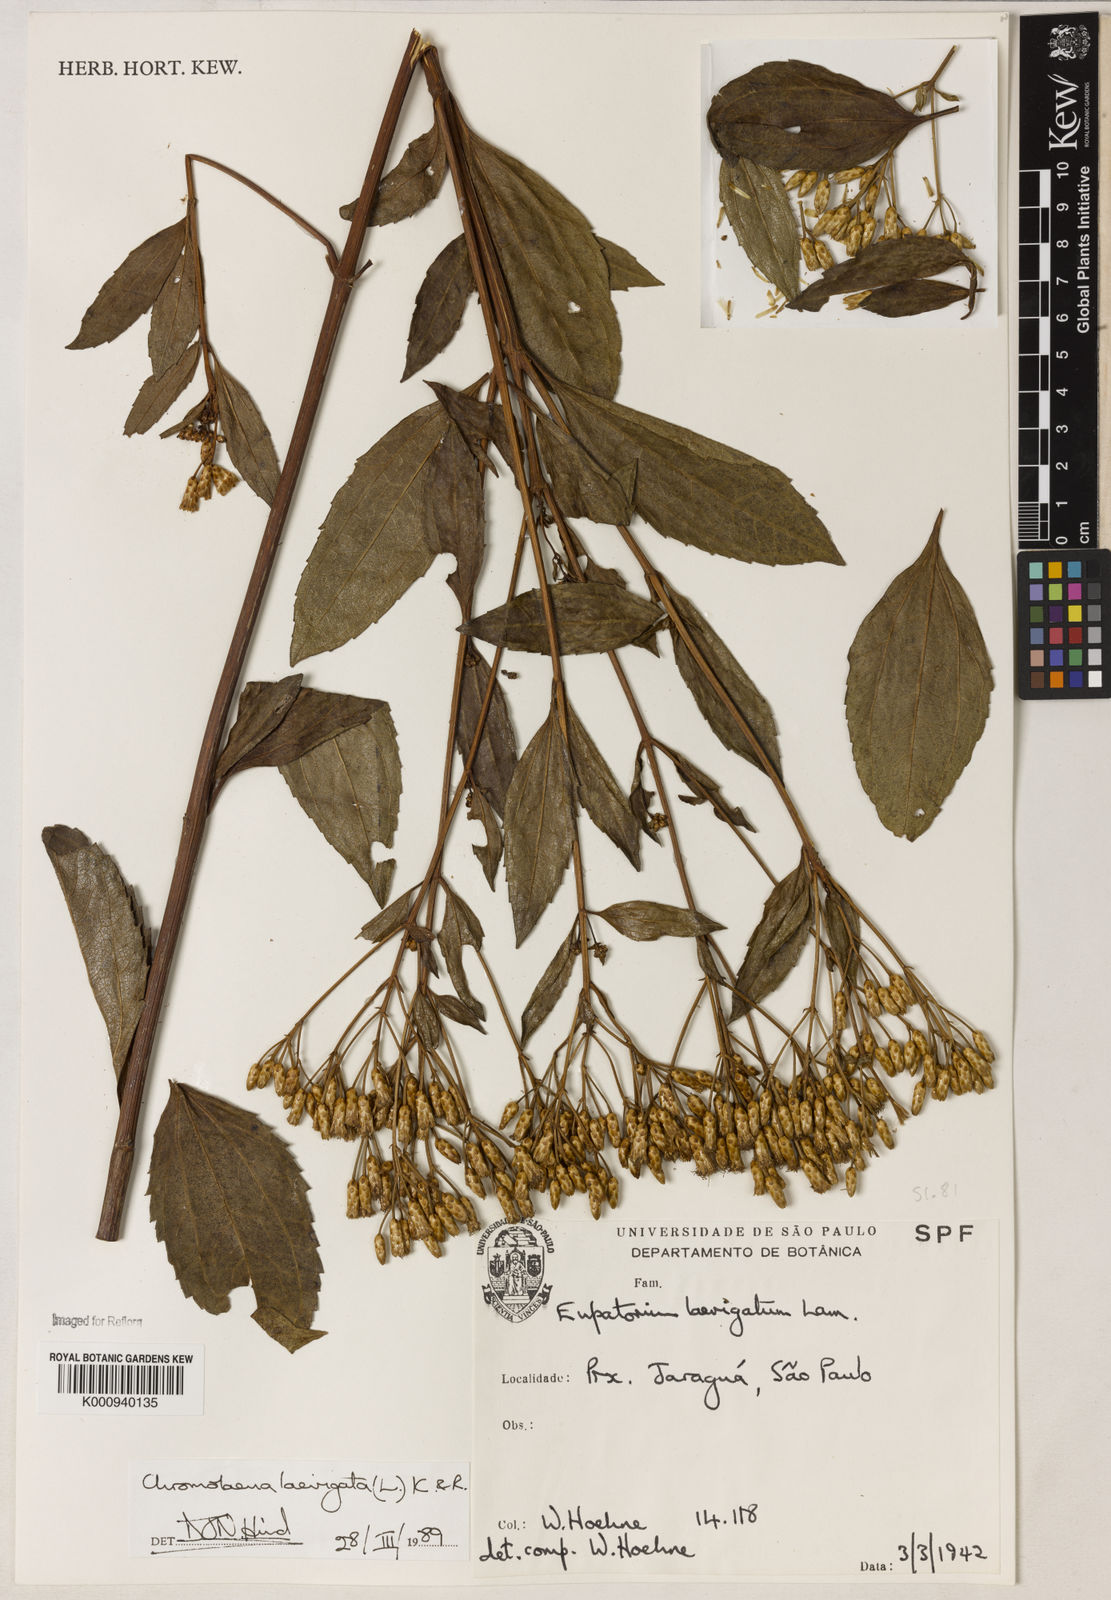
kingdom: Plantae
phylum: Tracheophyta
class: Magnoliopsida
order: Asterales
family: Asteraceae
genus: Chromolaena
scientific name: Chromolaena laevigata
